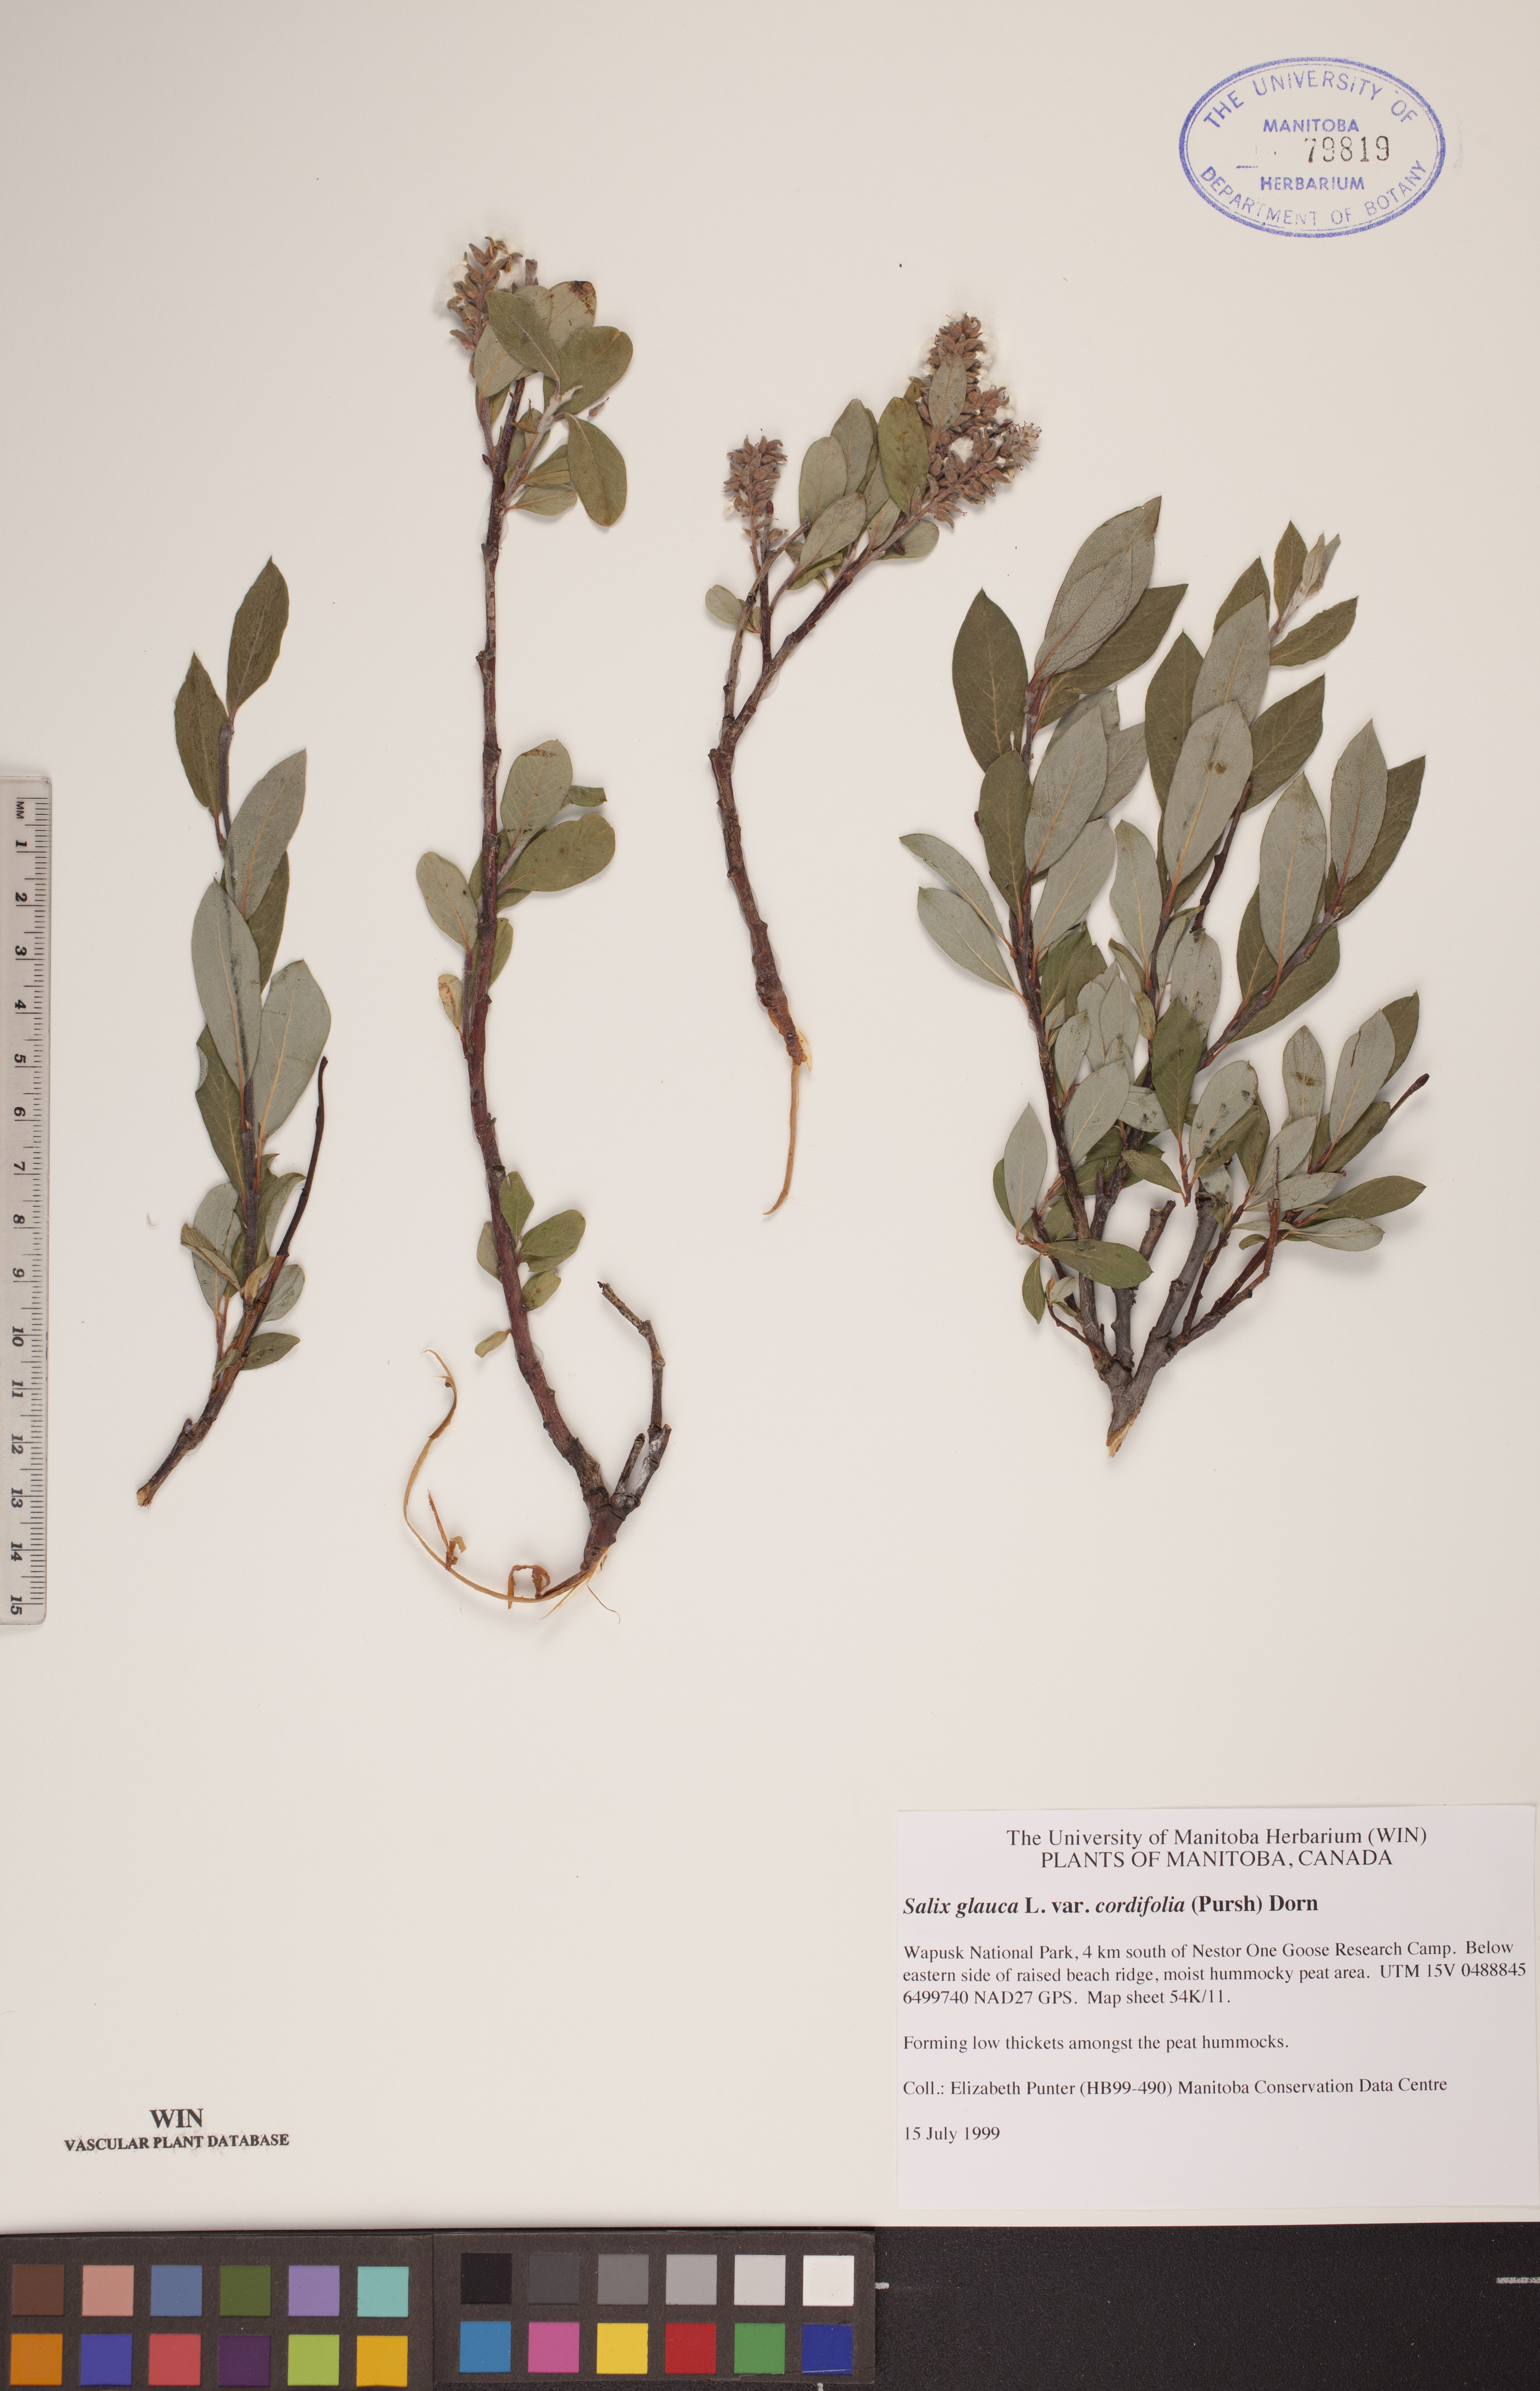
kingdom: Plantae
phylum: Tracheophyta
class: Magnoliopsida
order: Malpighiales
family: Salicaceae
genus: Salix
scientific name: Salix glauca
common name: Glaucous willow
